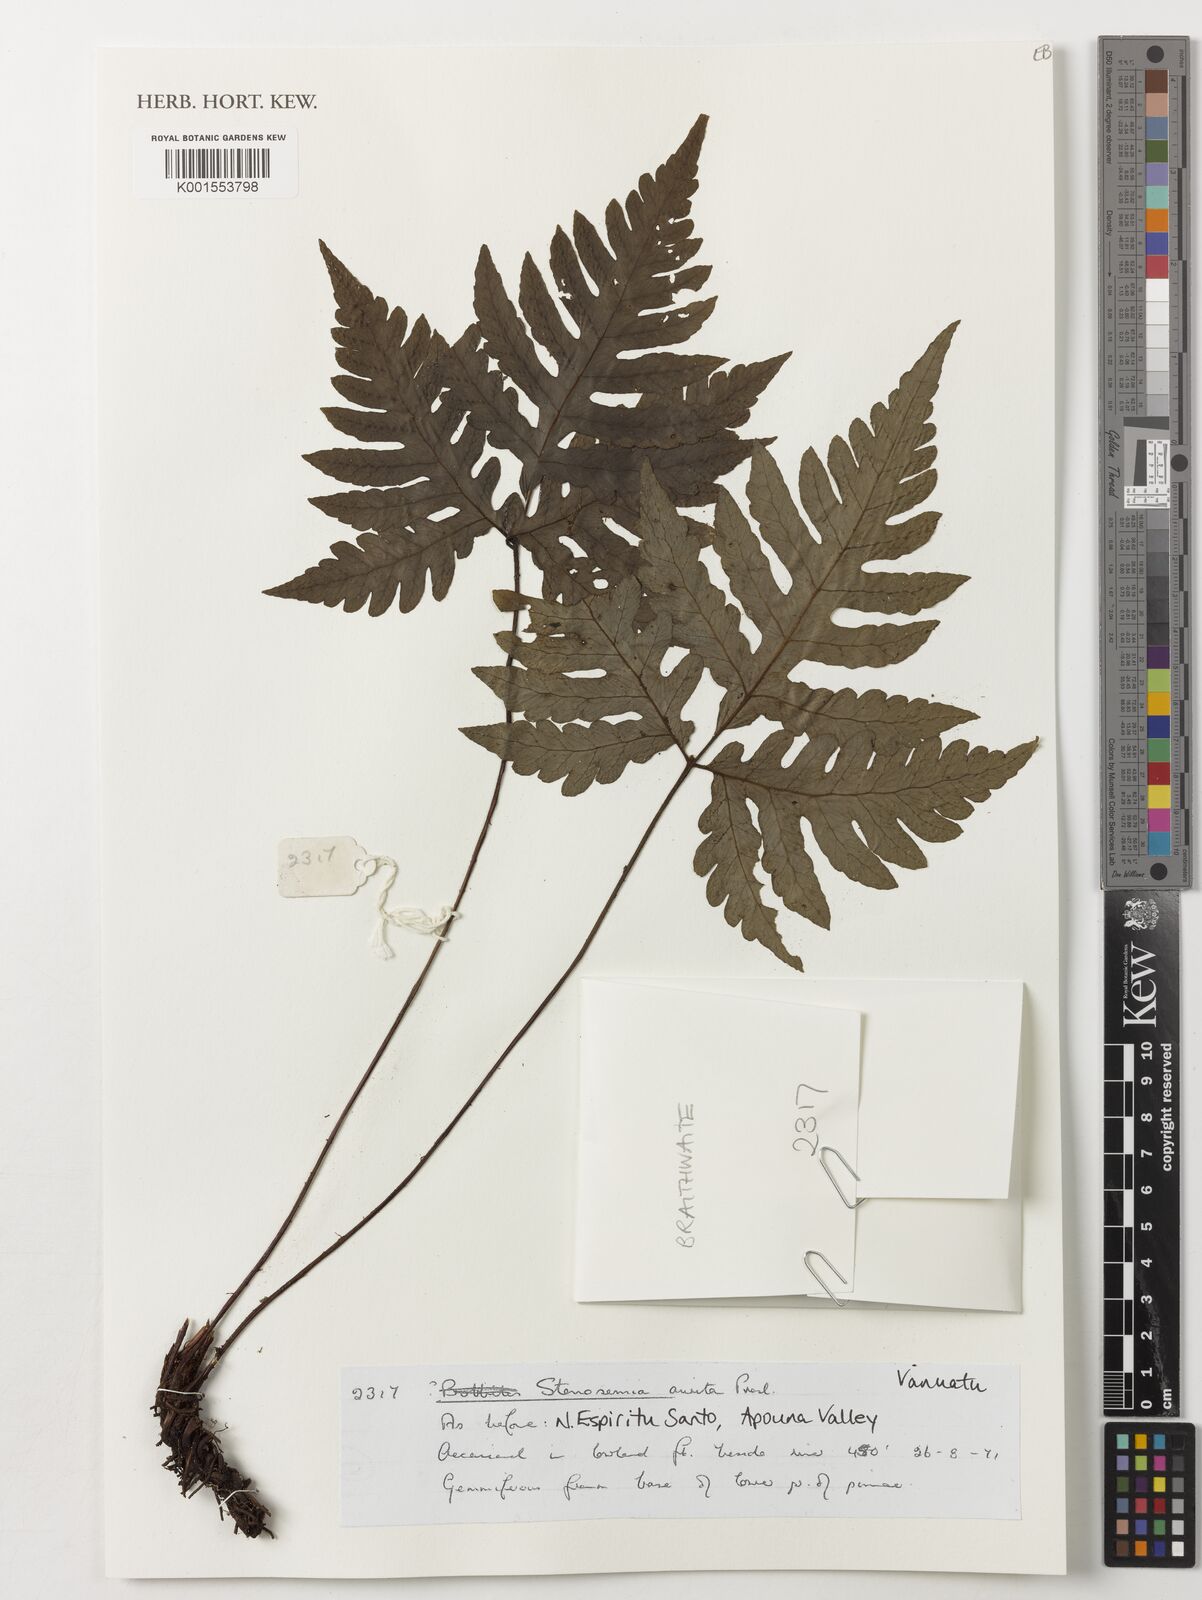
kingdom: Plantae
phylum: Tracheophyta
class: Polypodiopsida
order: Polypodiales
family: Tectariaceae
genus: Tectaria
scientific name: Tectaria aurita
